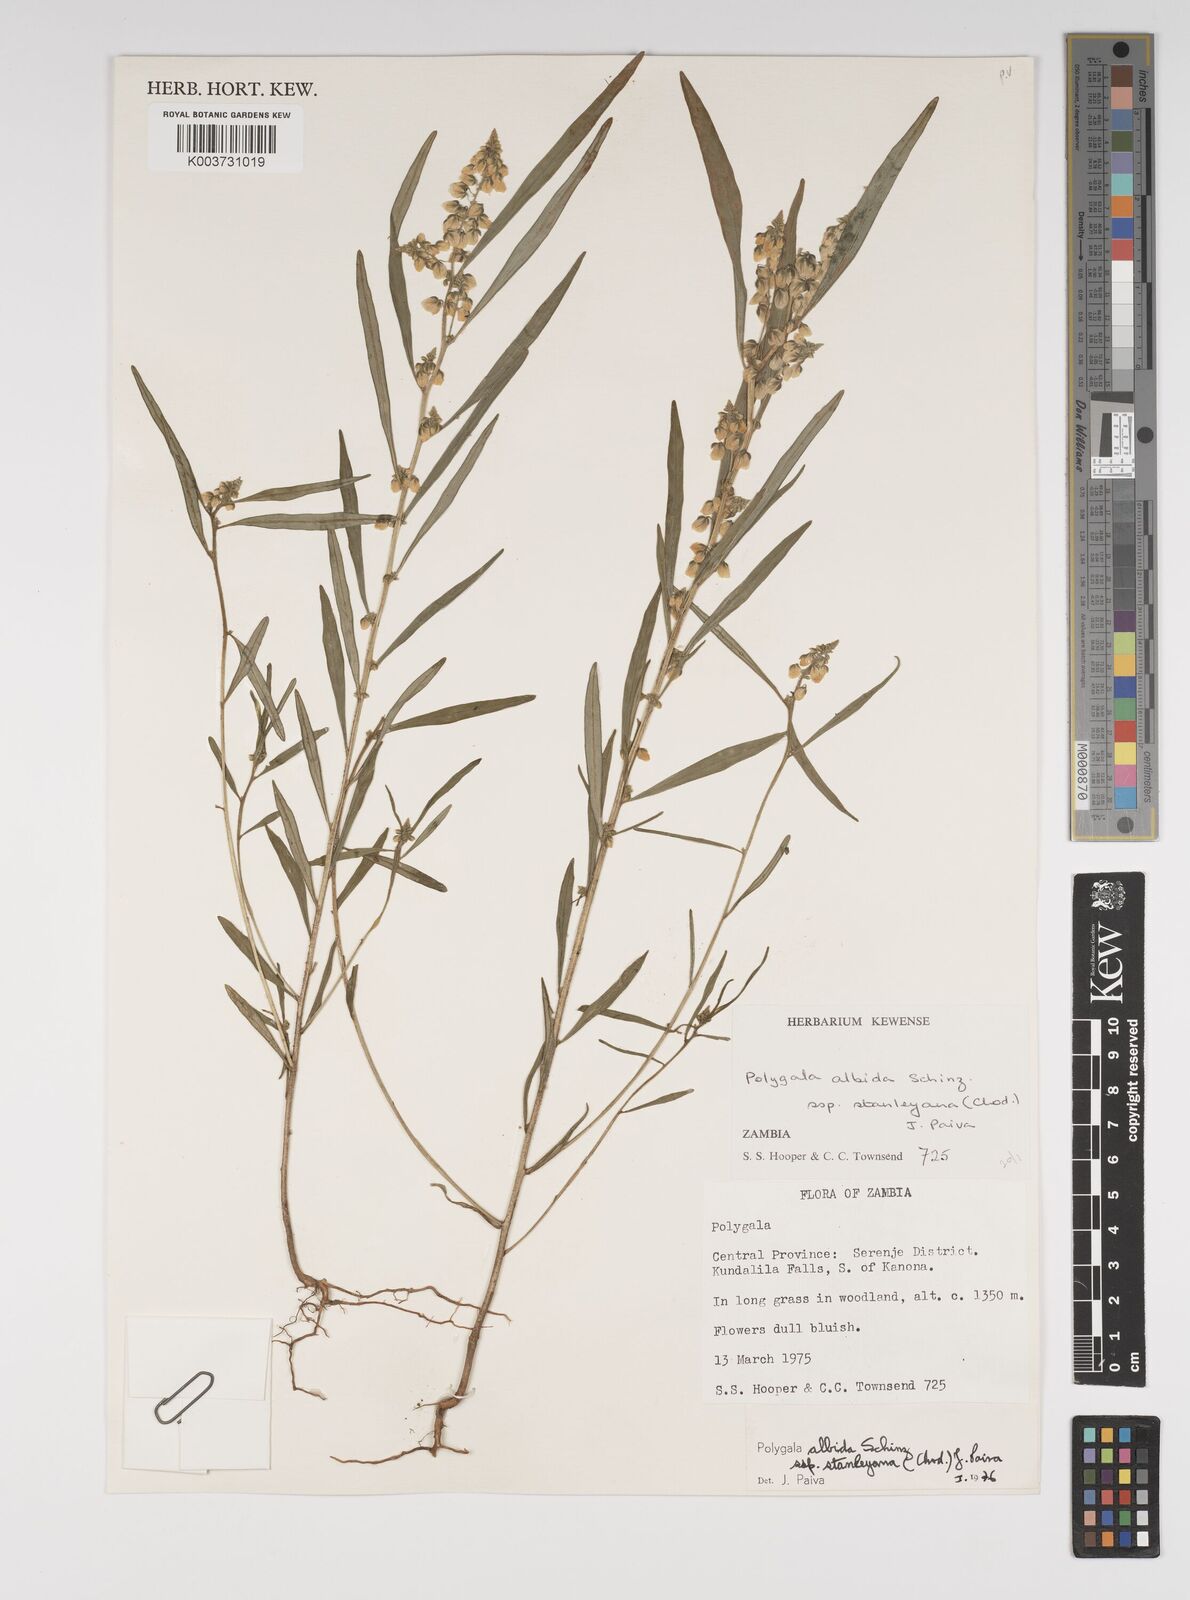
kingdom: Plantae
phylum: Tracheophyta
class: Magnoliopsida
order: Fabales
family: Polygalaceae
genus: Polygala
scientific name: Polygala albida
